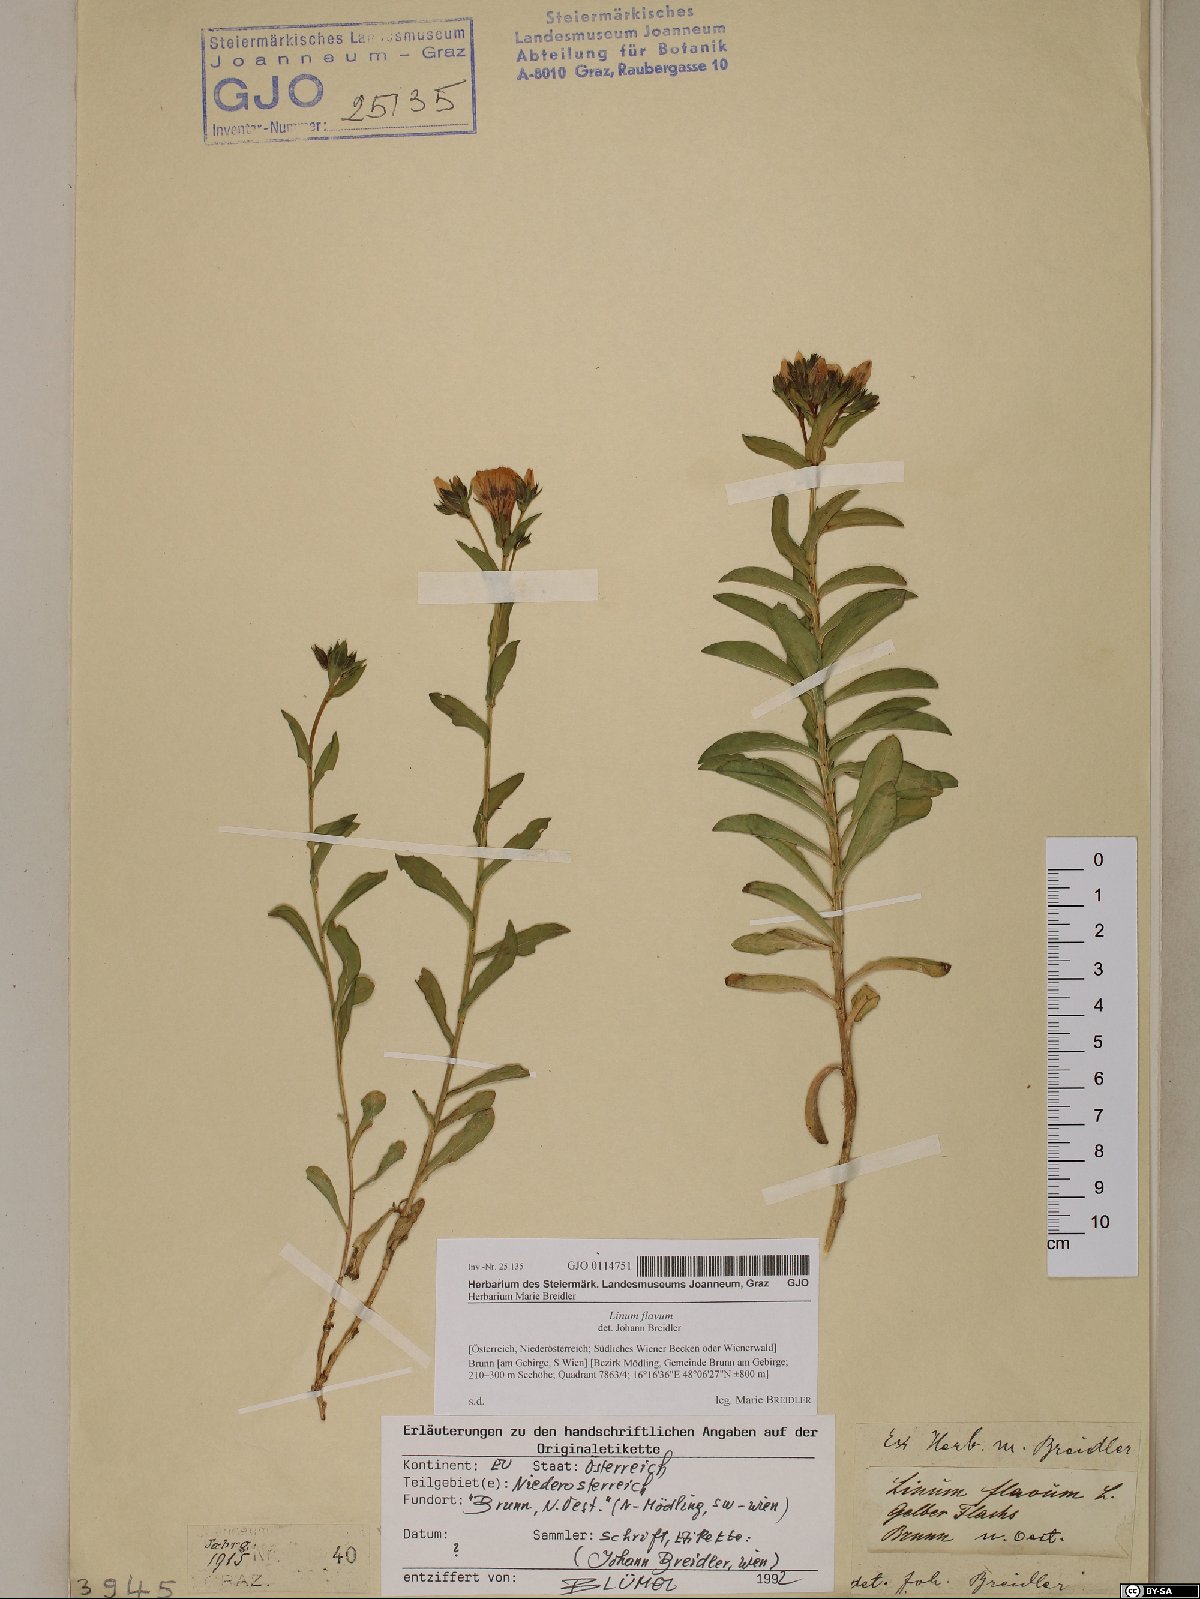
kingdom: Plantae
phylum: Tracheophyta
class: Magnoliopsida
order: Malpighiales
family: Linaceae
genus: Linum
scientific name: Linum flavum
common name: Yellow flax
